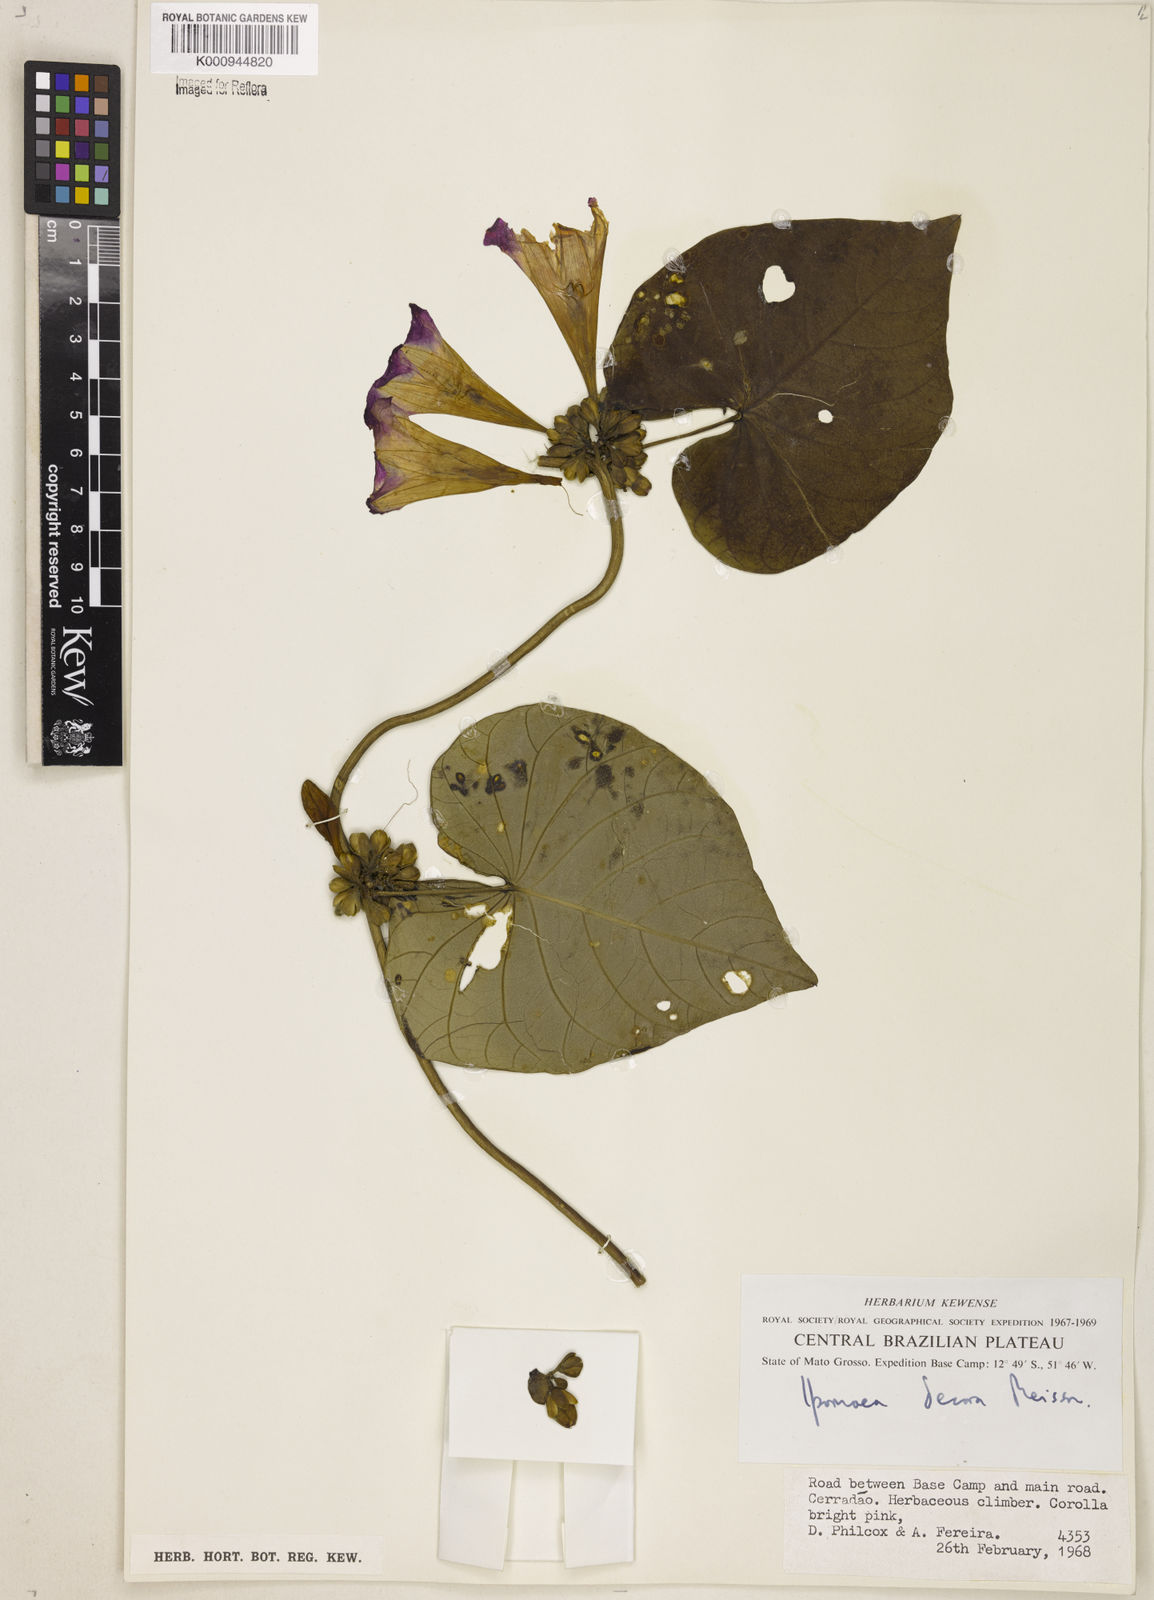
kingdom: Plantae
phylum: Tracheophyta
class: Magnoliopsida
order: Solanales
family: Convolvulaceae
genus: Ipomoea
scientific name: Ipomoea goyazensis
